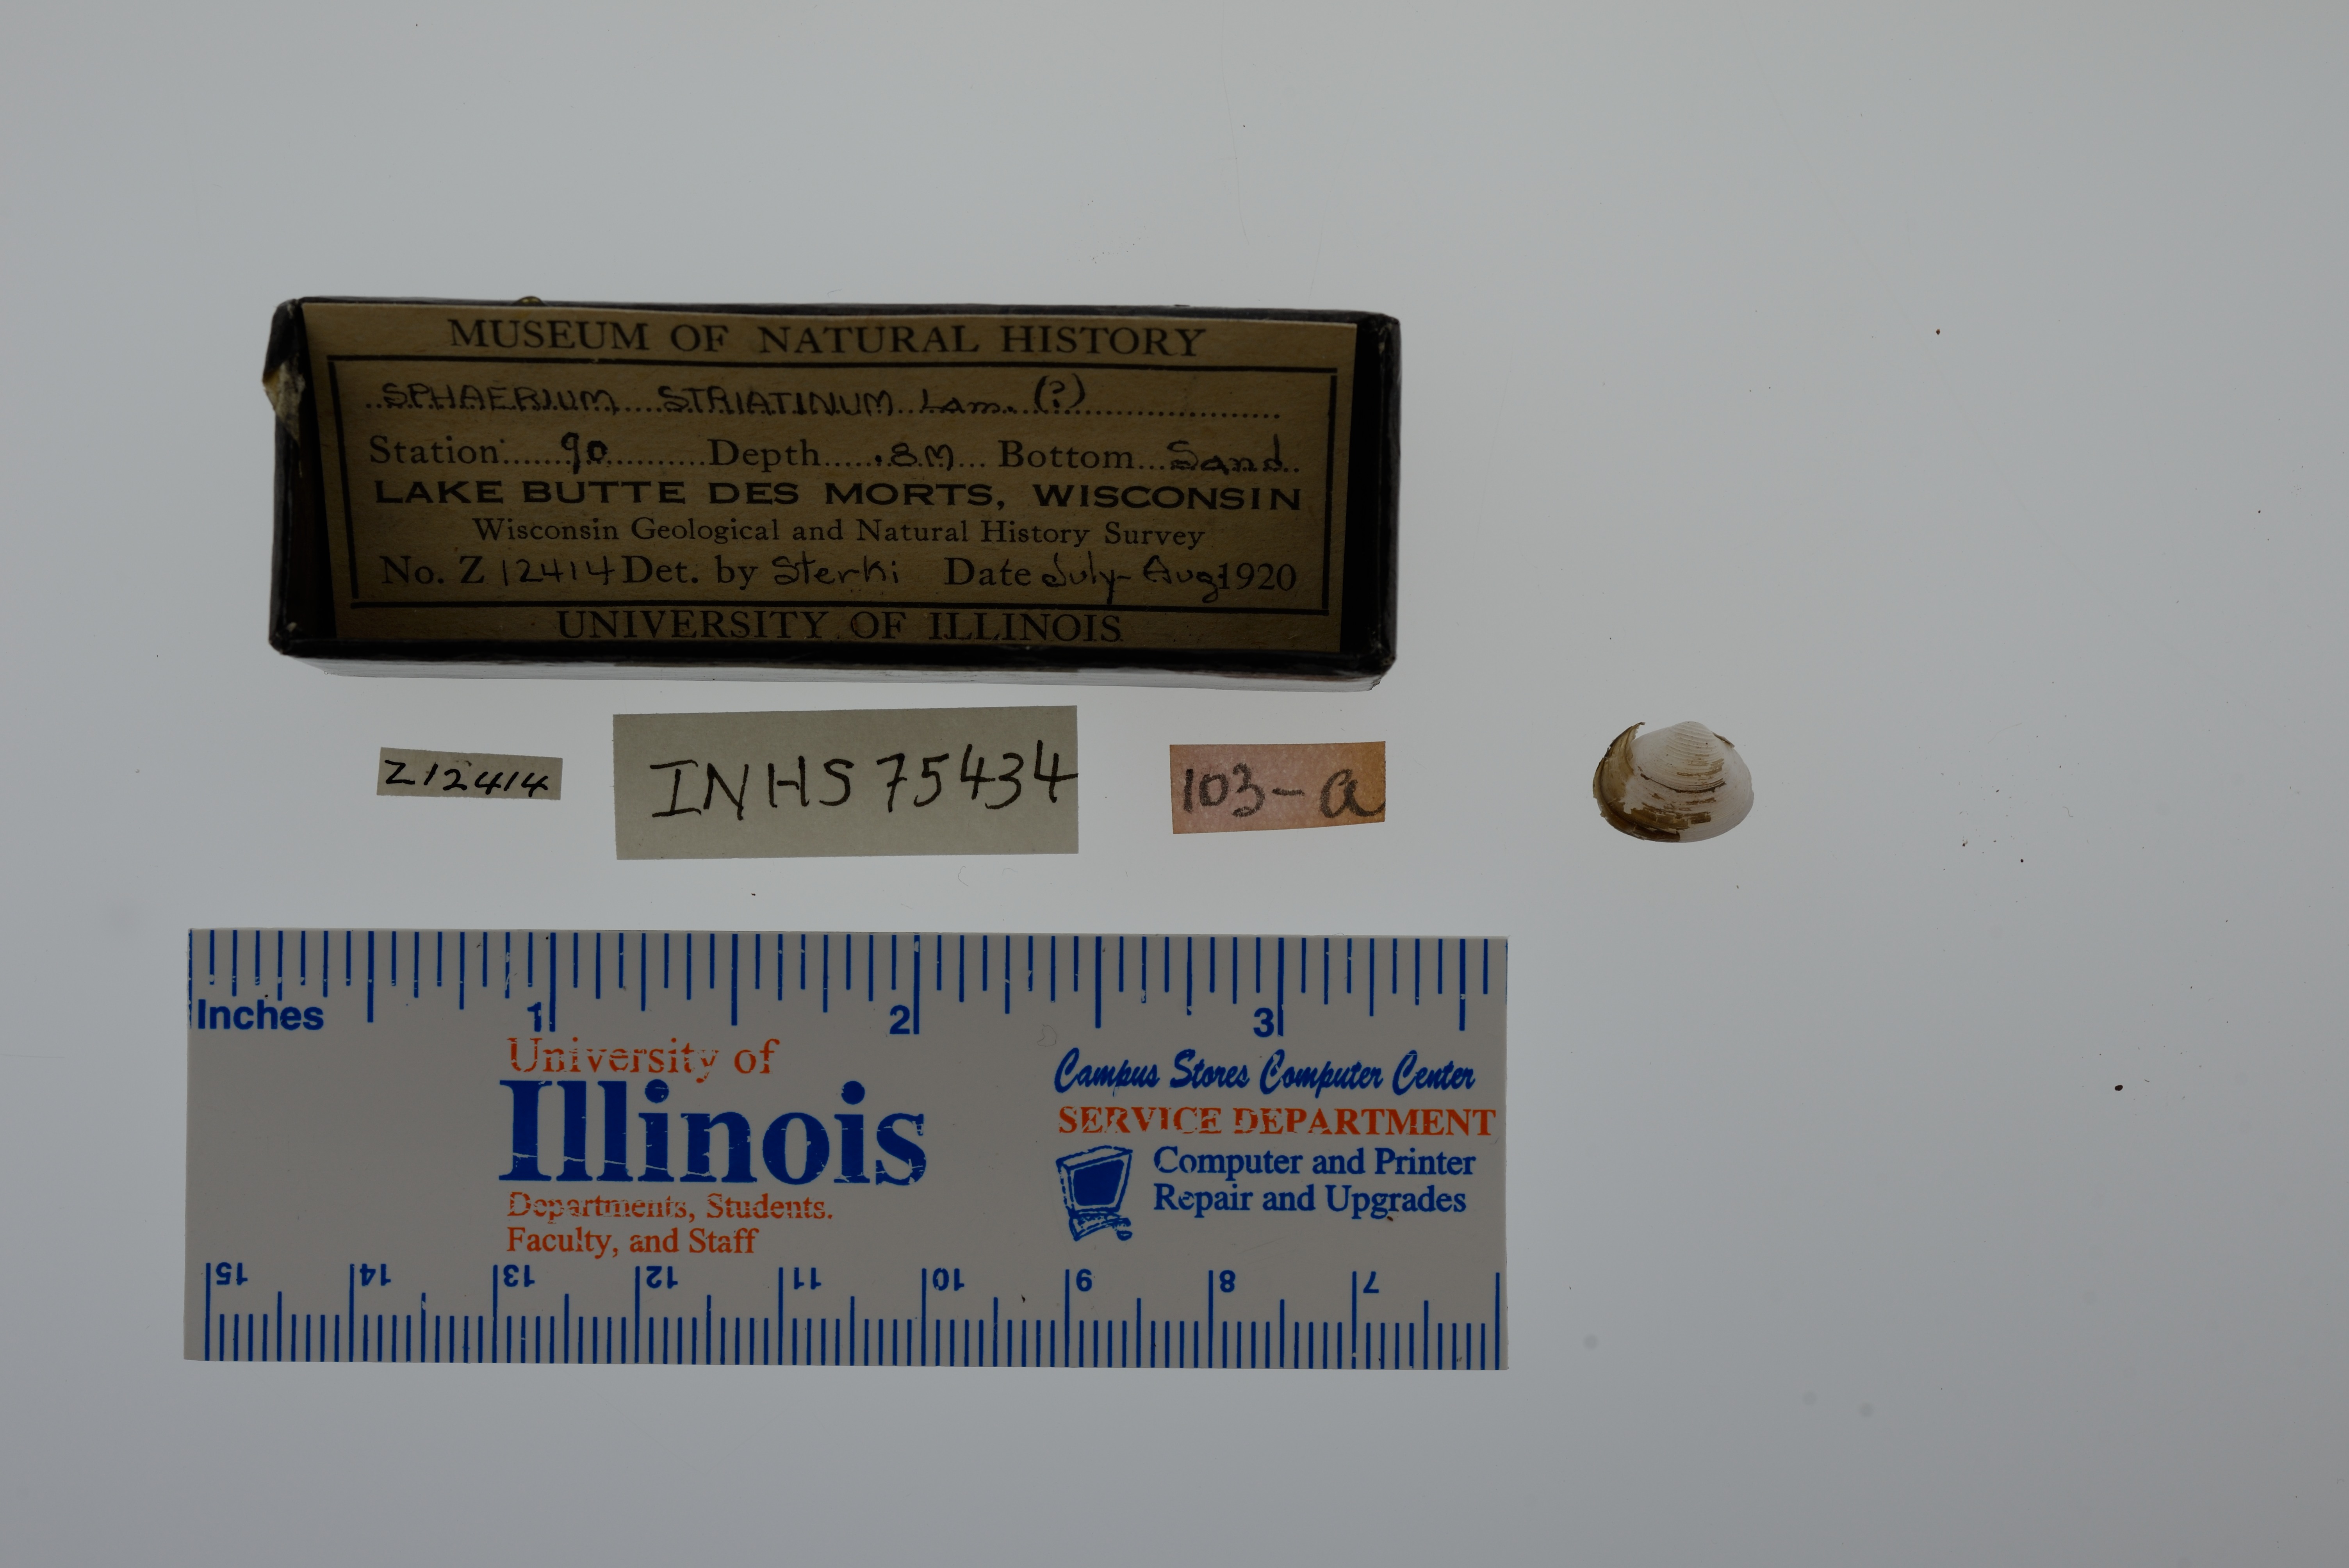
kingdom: Animalia
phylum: Mollusca
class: Bivalvia
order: Sphaeriida
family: Sphaeriidae
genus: Sphaerium
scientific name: Sphaerium striatinum
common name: Striated fingernailclam
